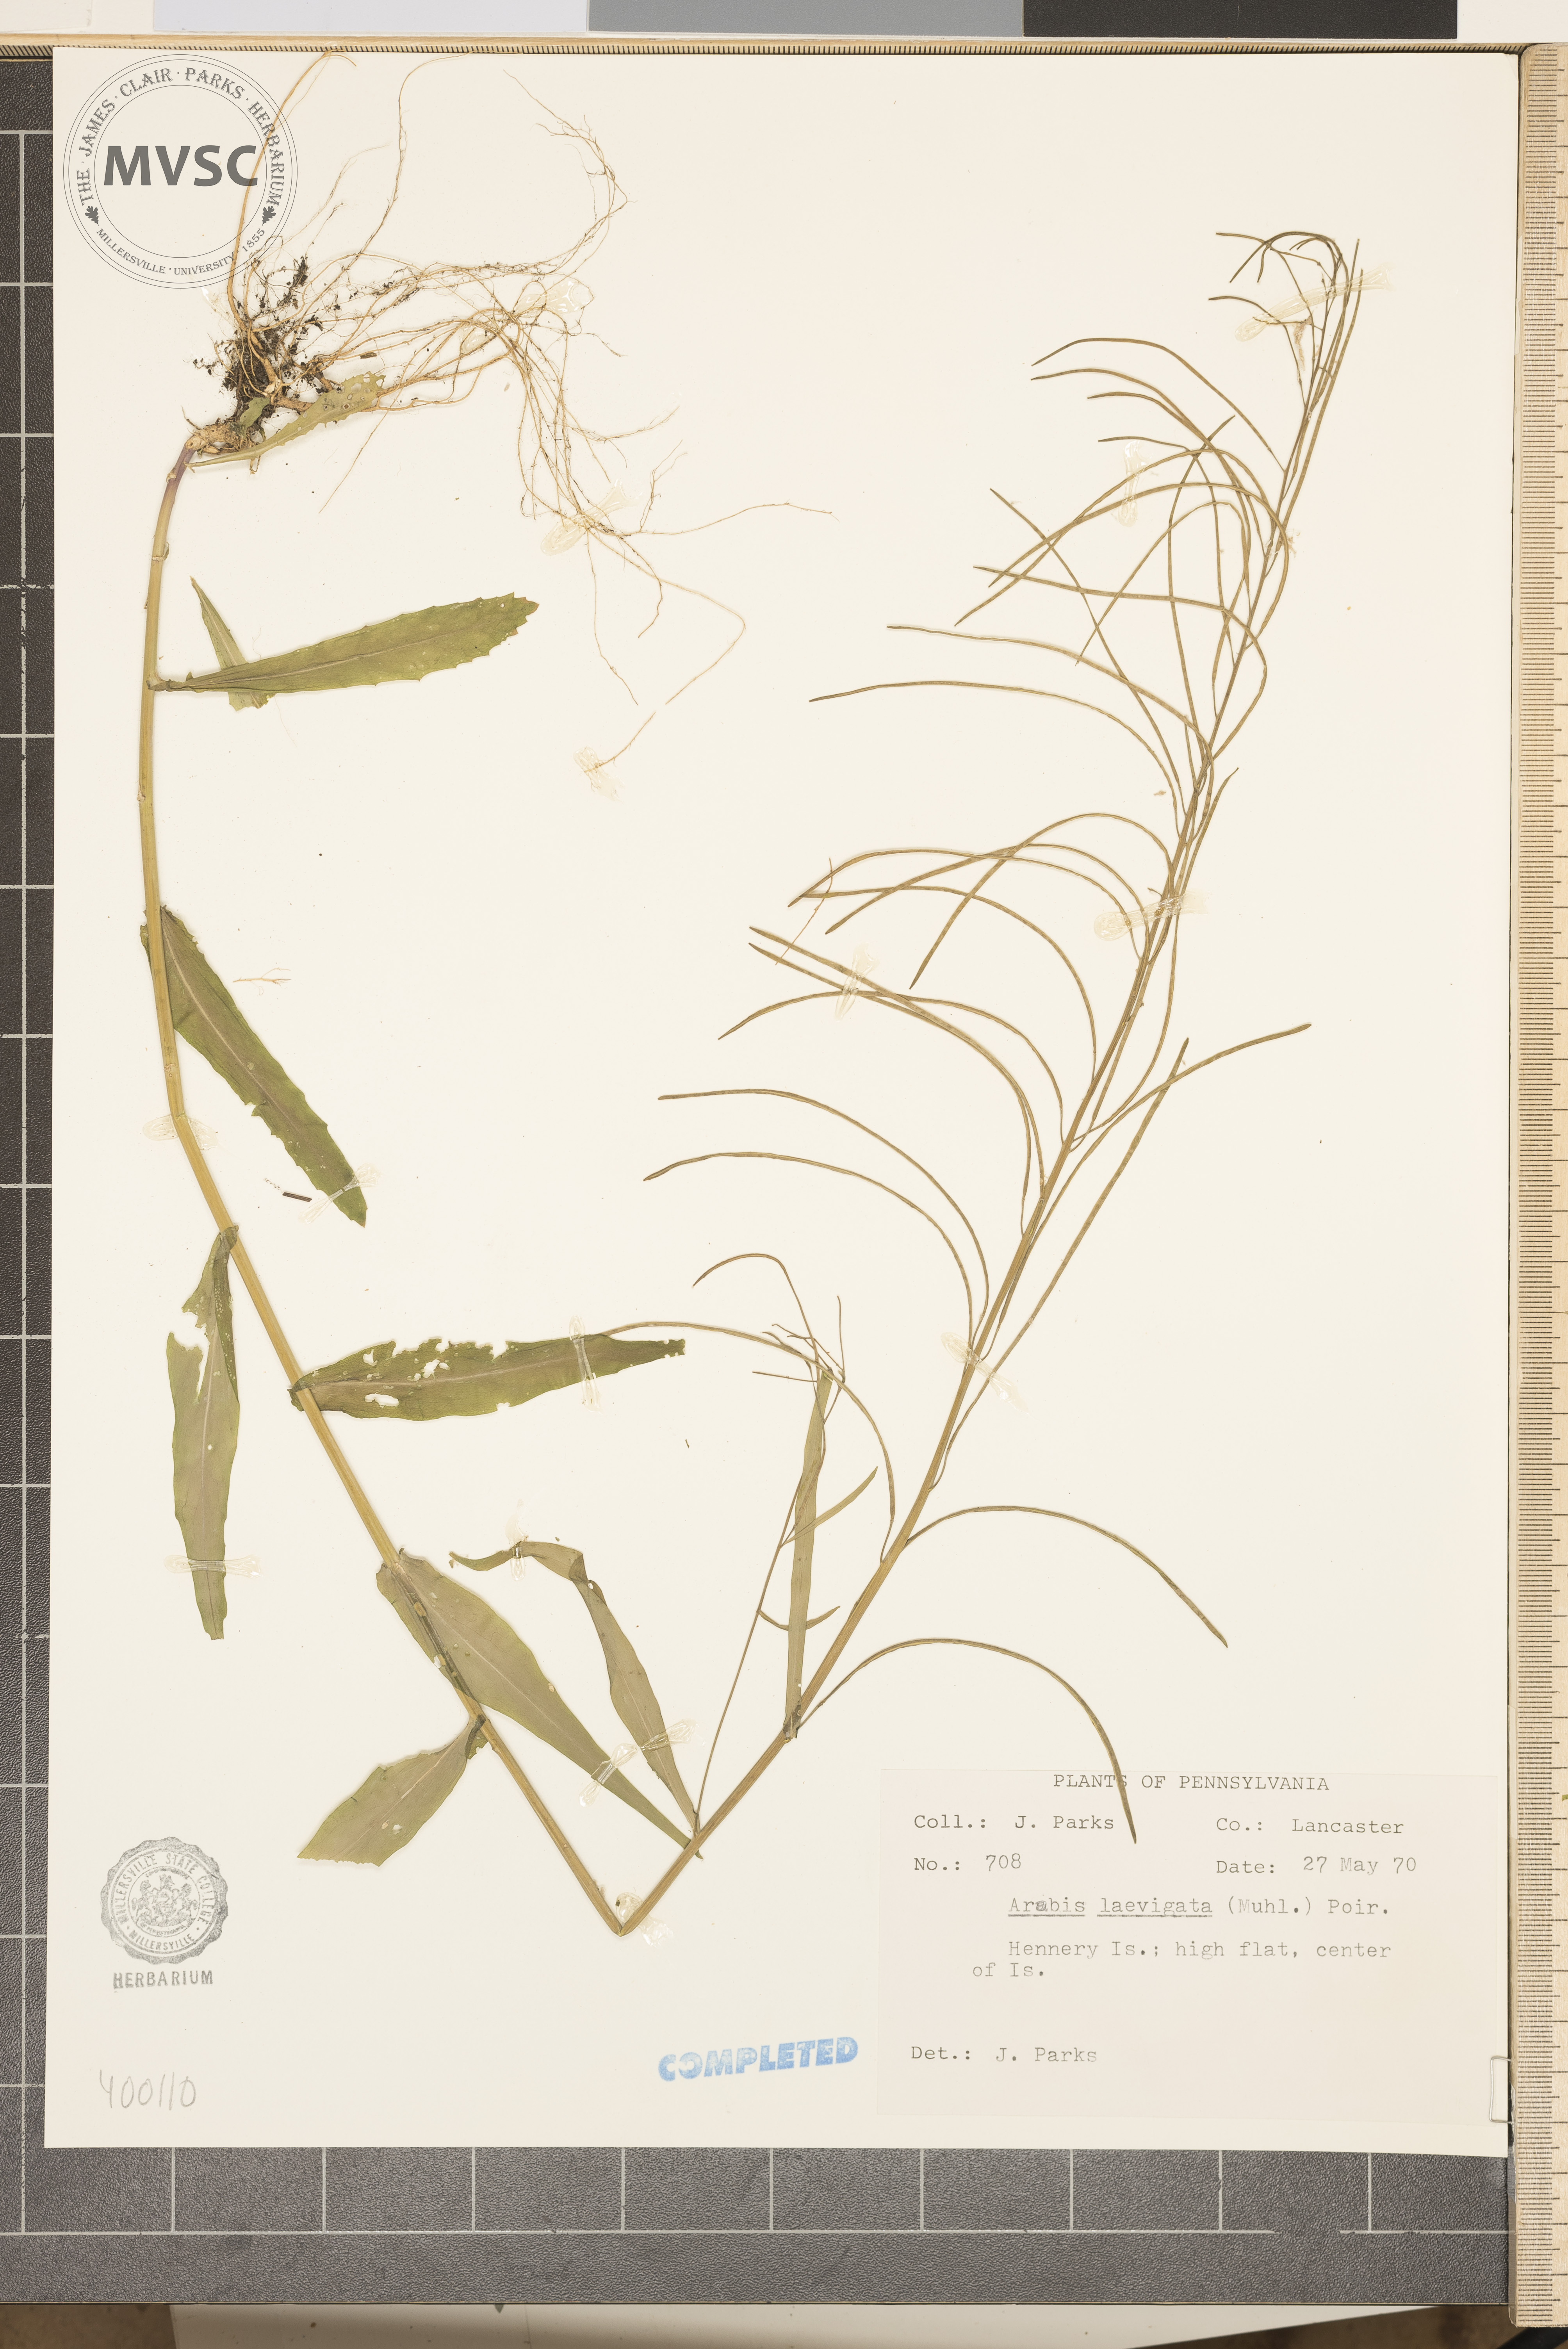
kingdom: Plantae
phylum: Tracheophyta
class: Magnoliopsida
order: Brassicales
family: Brassicaceae
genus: Arabis
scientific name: Arabis laevigata
